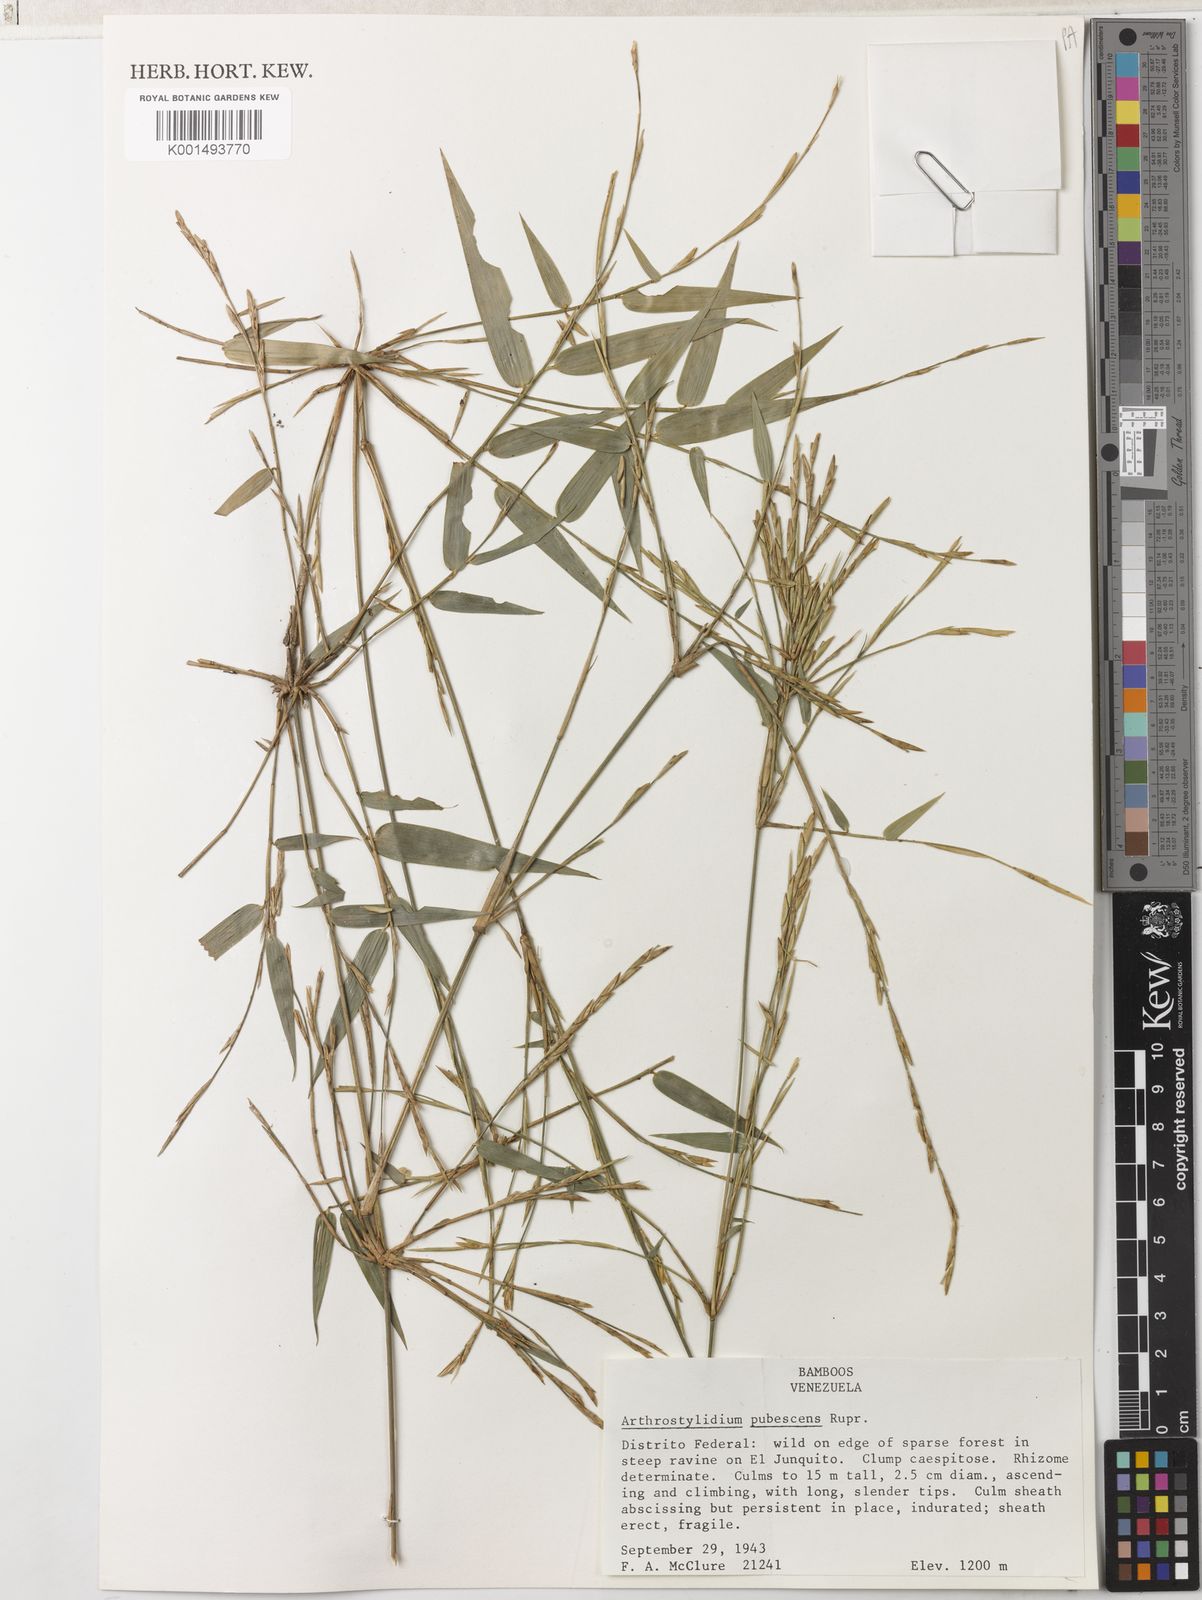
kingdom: Plantae
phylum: Tracheophyta
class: Liliopsida
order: Poales
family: Poaceae
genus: Arthrostylidium
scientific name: Arthrostylidium pubescens
